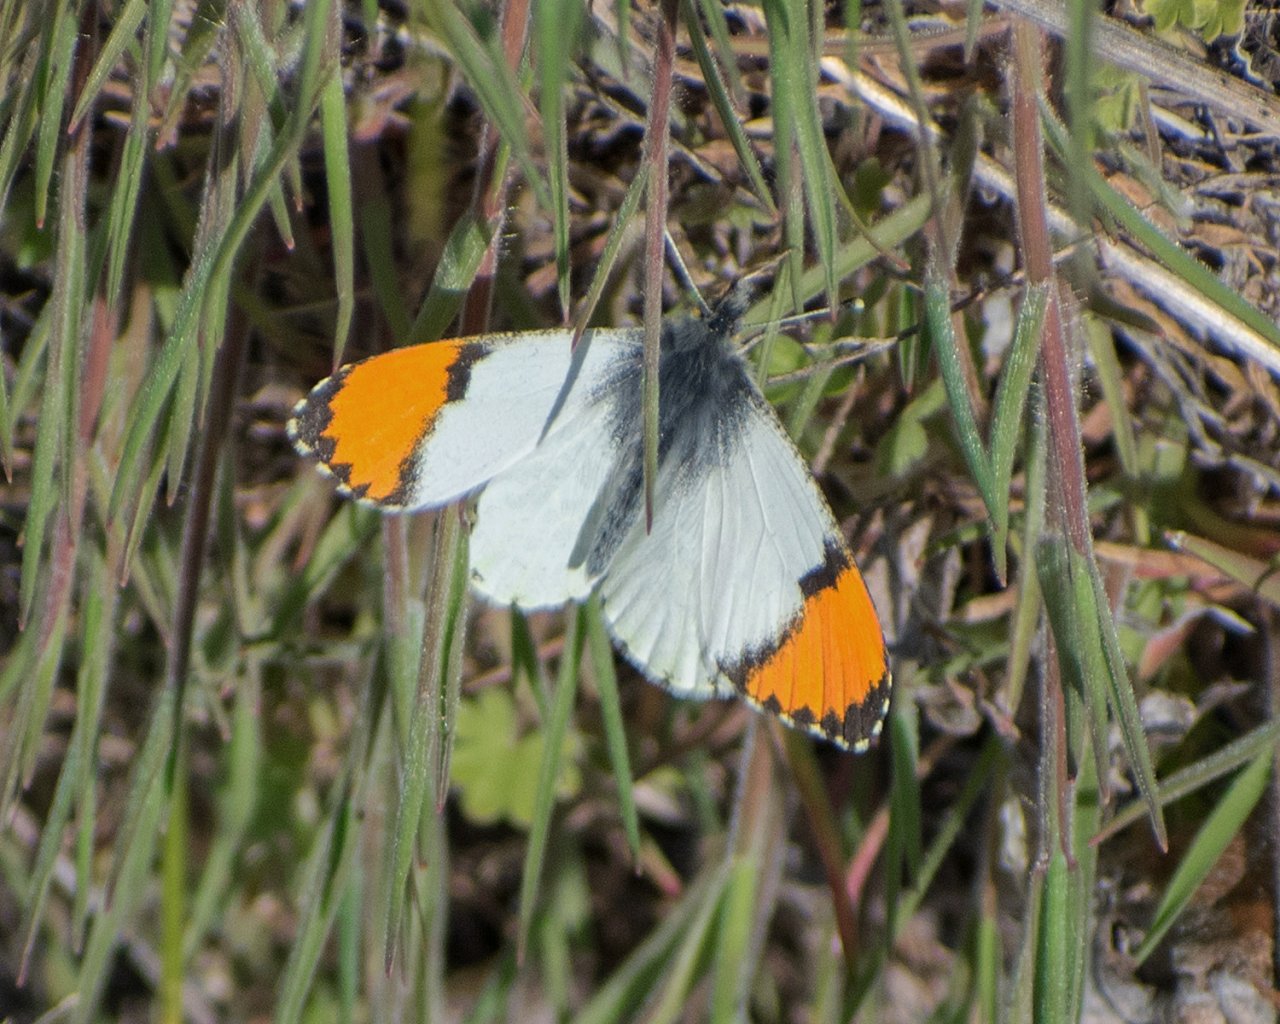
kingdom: Animalia
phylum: Arthropoda
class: Insecta
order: Lepidoptera
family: Pieridae
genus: Anthocharis
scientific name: Anthocharis sara
